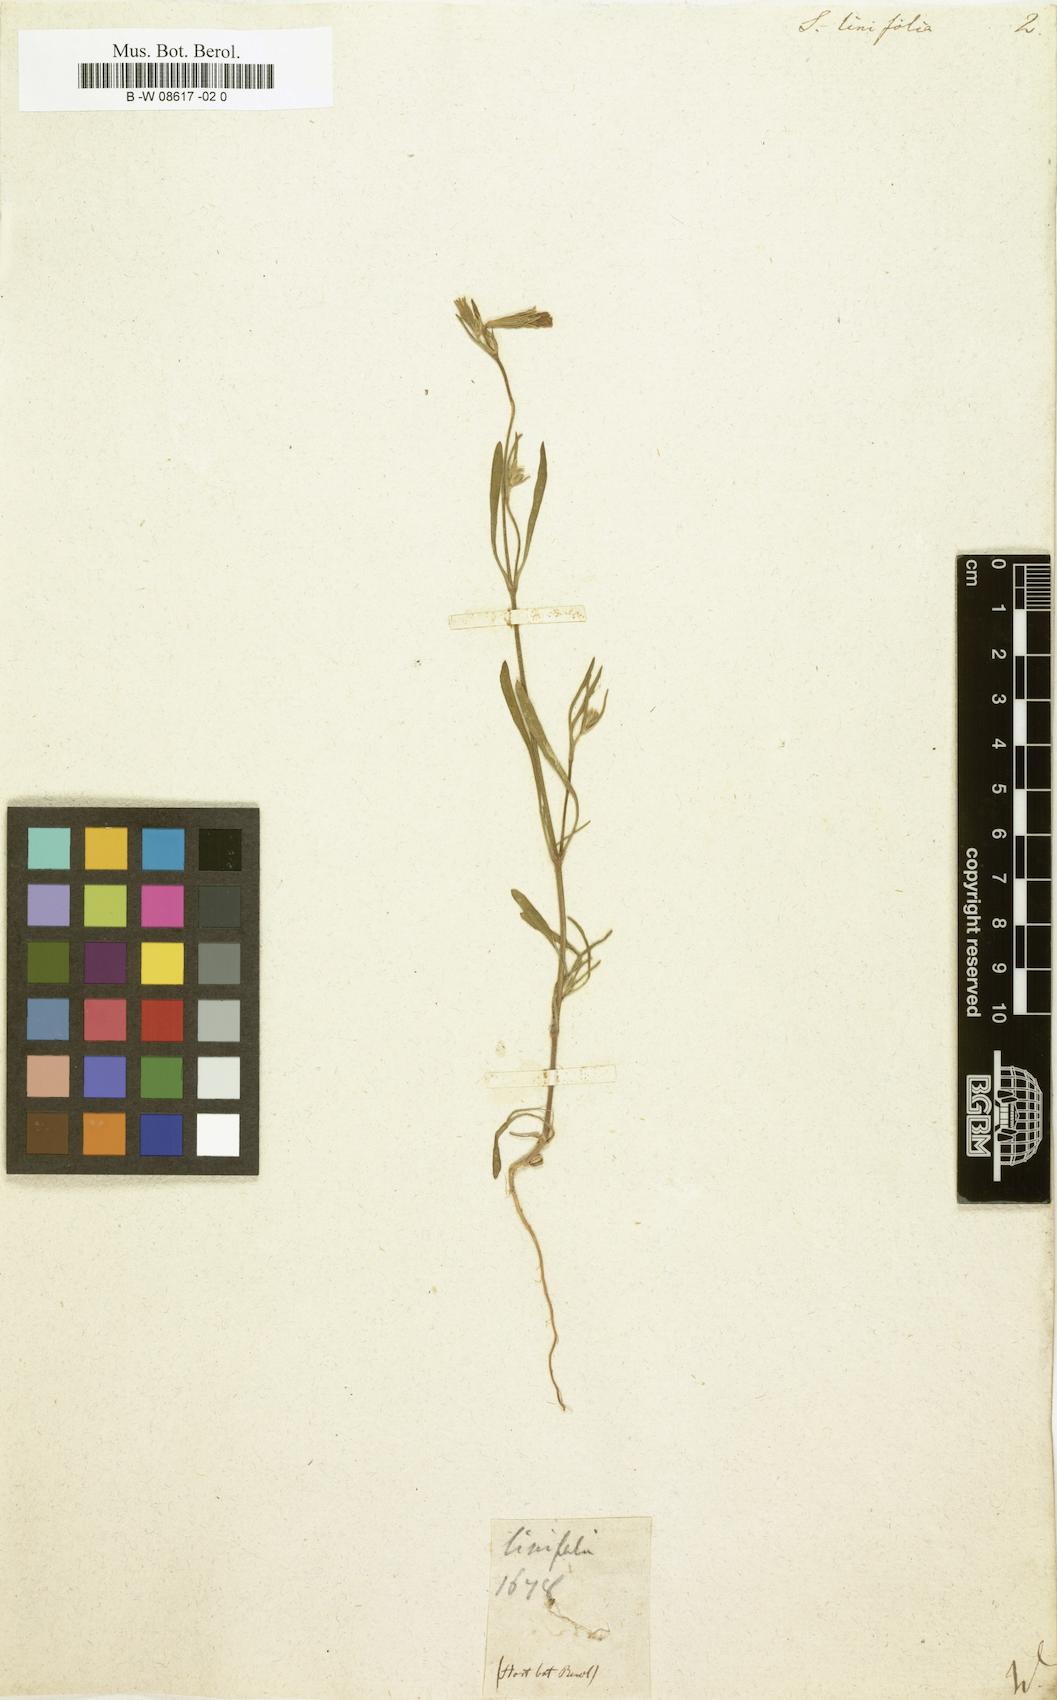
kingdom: Plantae
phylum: Tracheophyta
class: Magnoliopsida
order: Caryophyllales
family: Caryophyllaceae
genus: Silene
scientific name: Silene
